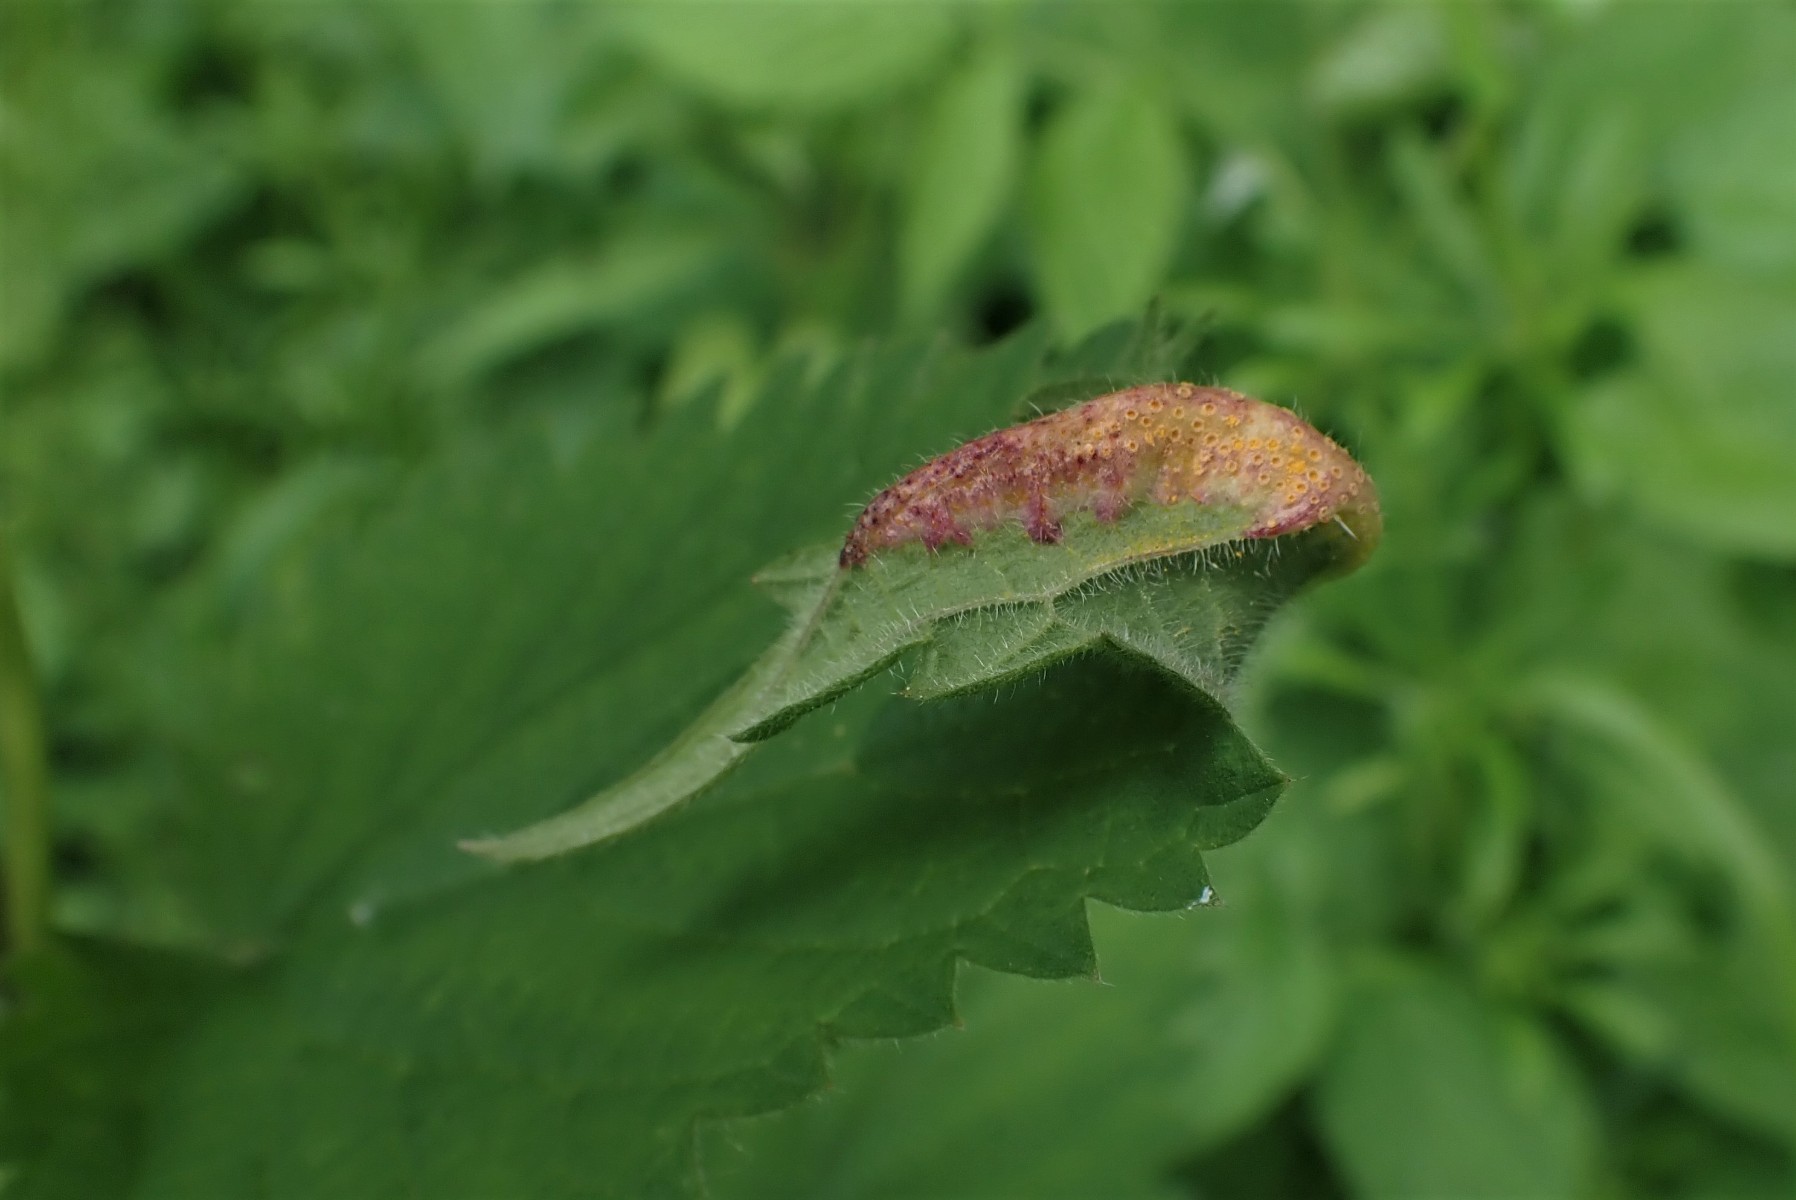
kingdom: Fungi
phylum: Basidiomycota
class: Pucciniomycetes
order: Pucciniales
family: Pucciniaceae
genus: Puccinia
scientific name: Puccinia urticata
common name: nældegalle-tvecellerust
